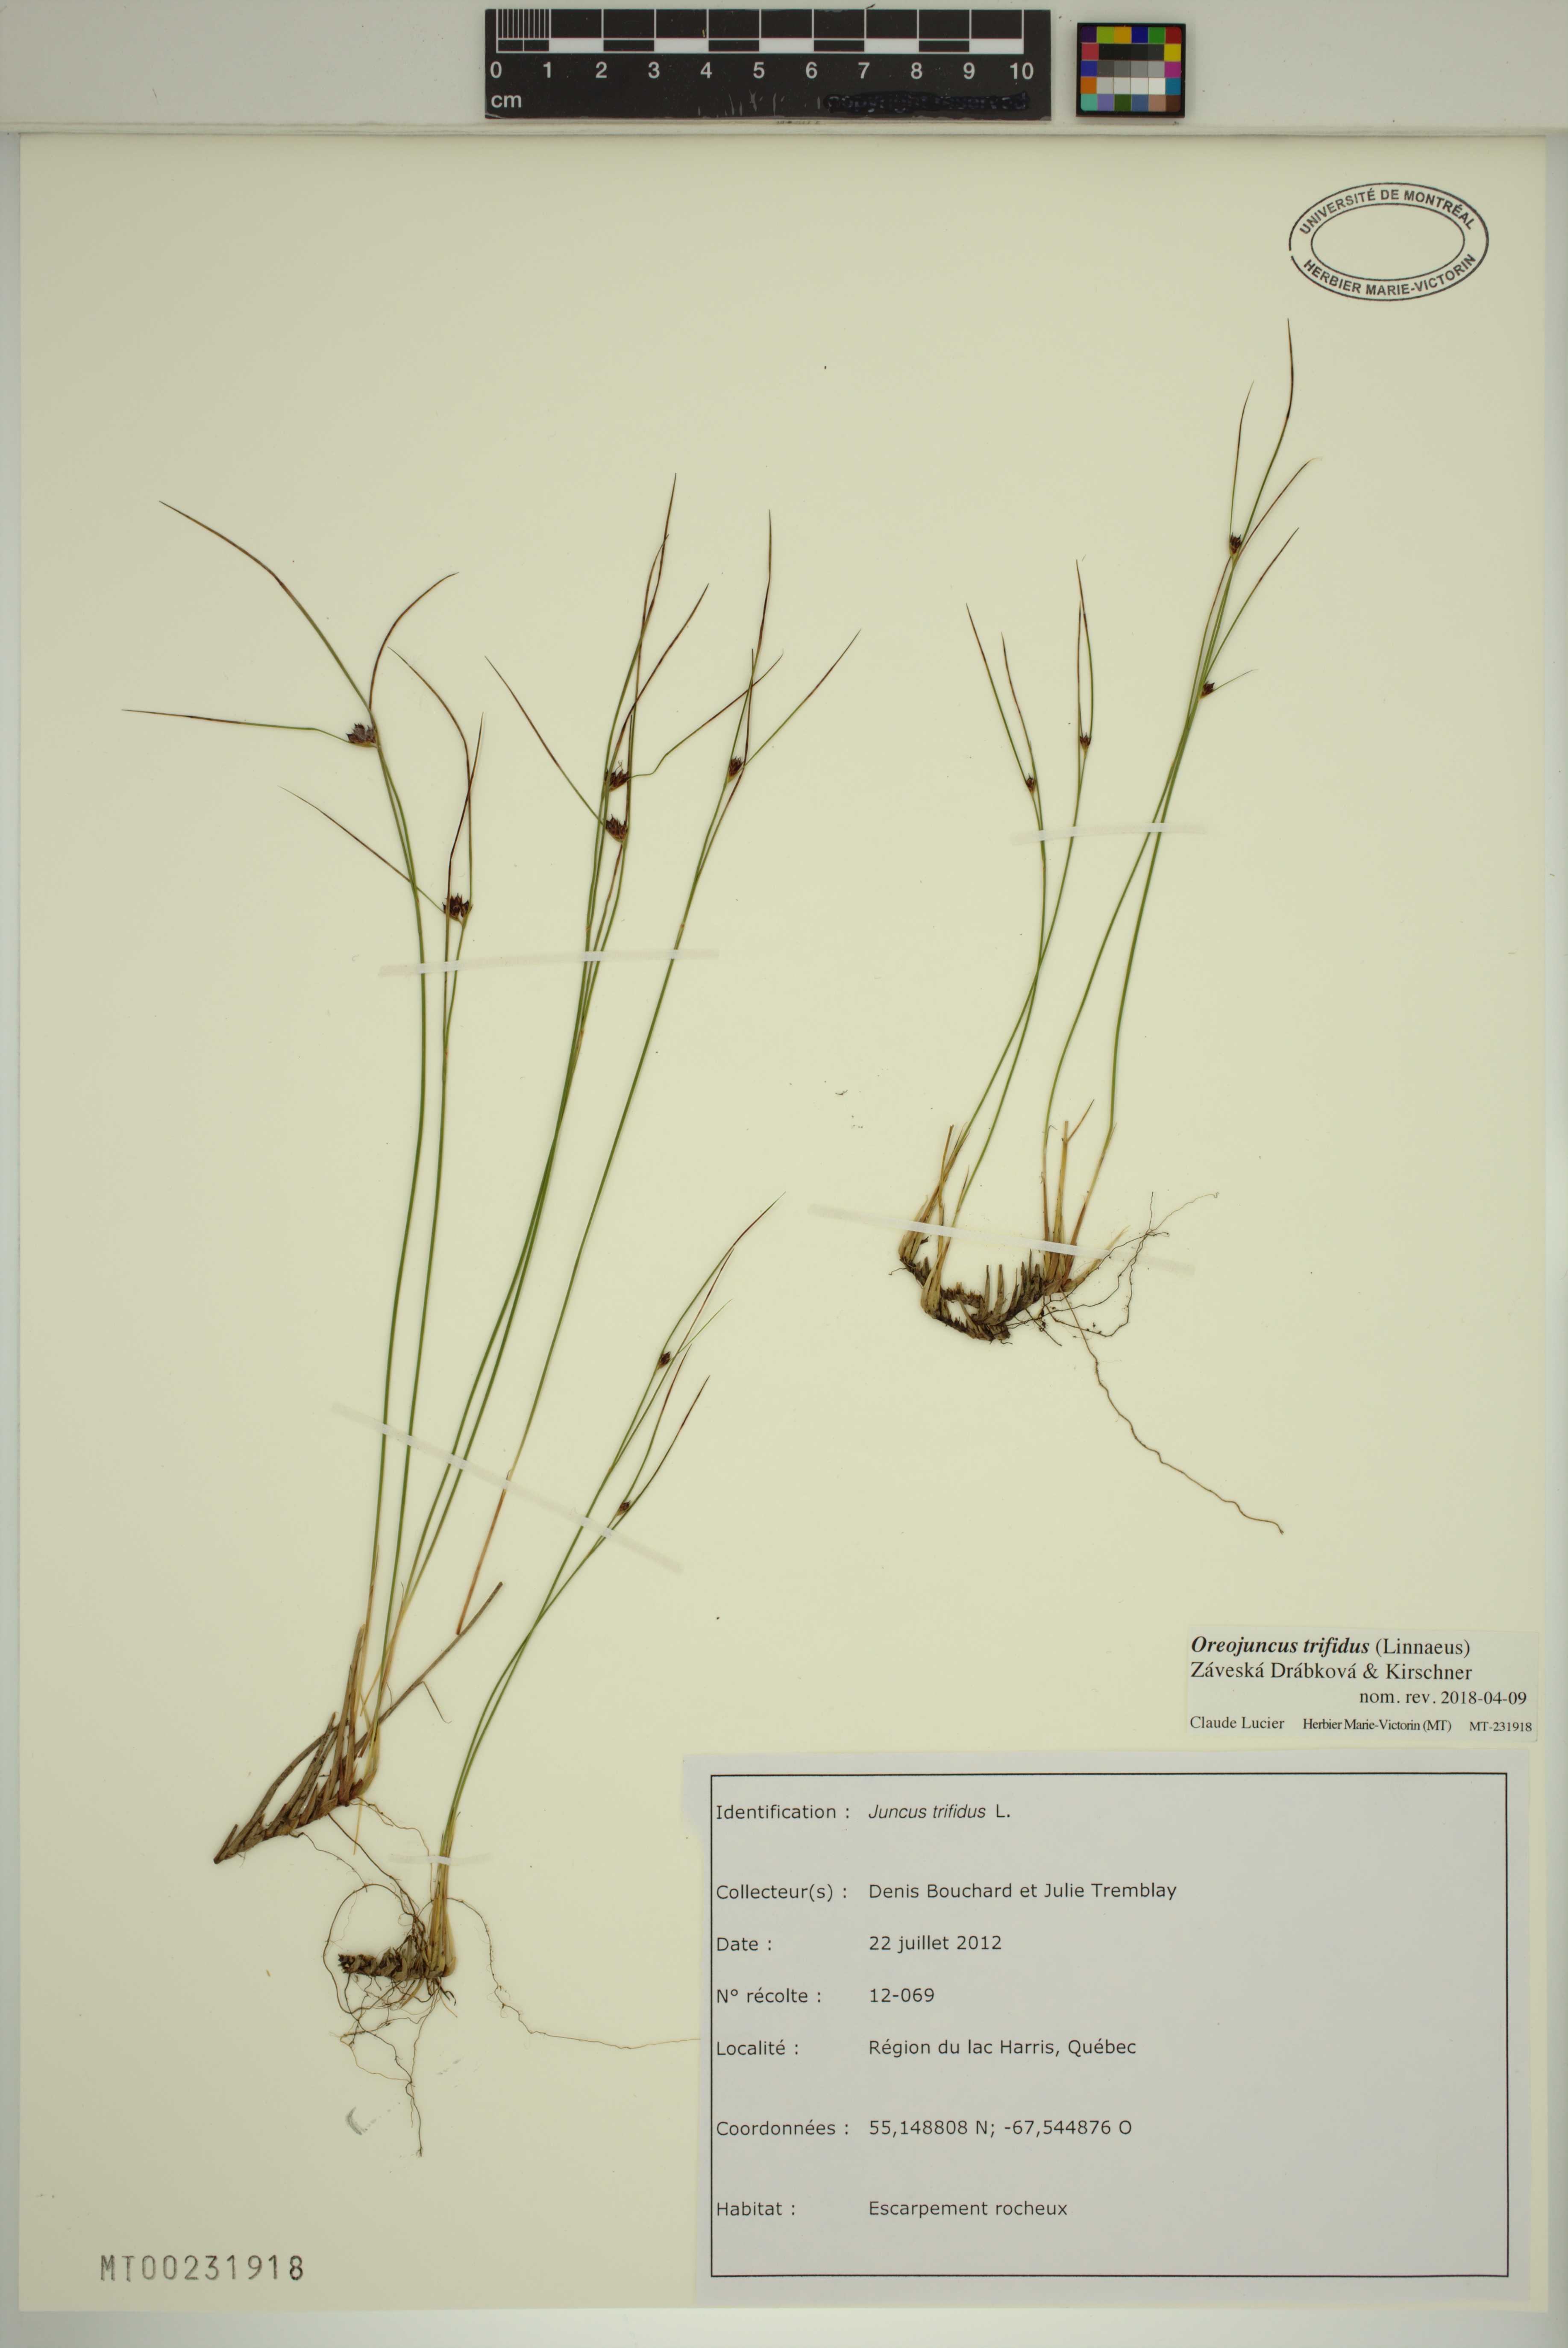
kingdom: Plantae
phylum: Tracheophyta
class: Liliopsida
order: Poales
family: Juncaceae
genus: Oreojuncus
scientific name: Oreojuncus trifidus
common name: Highland rush
